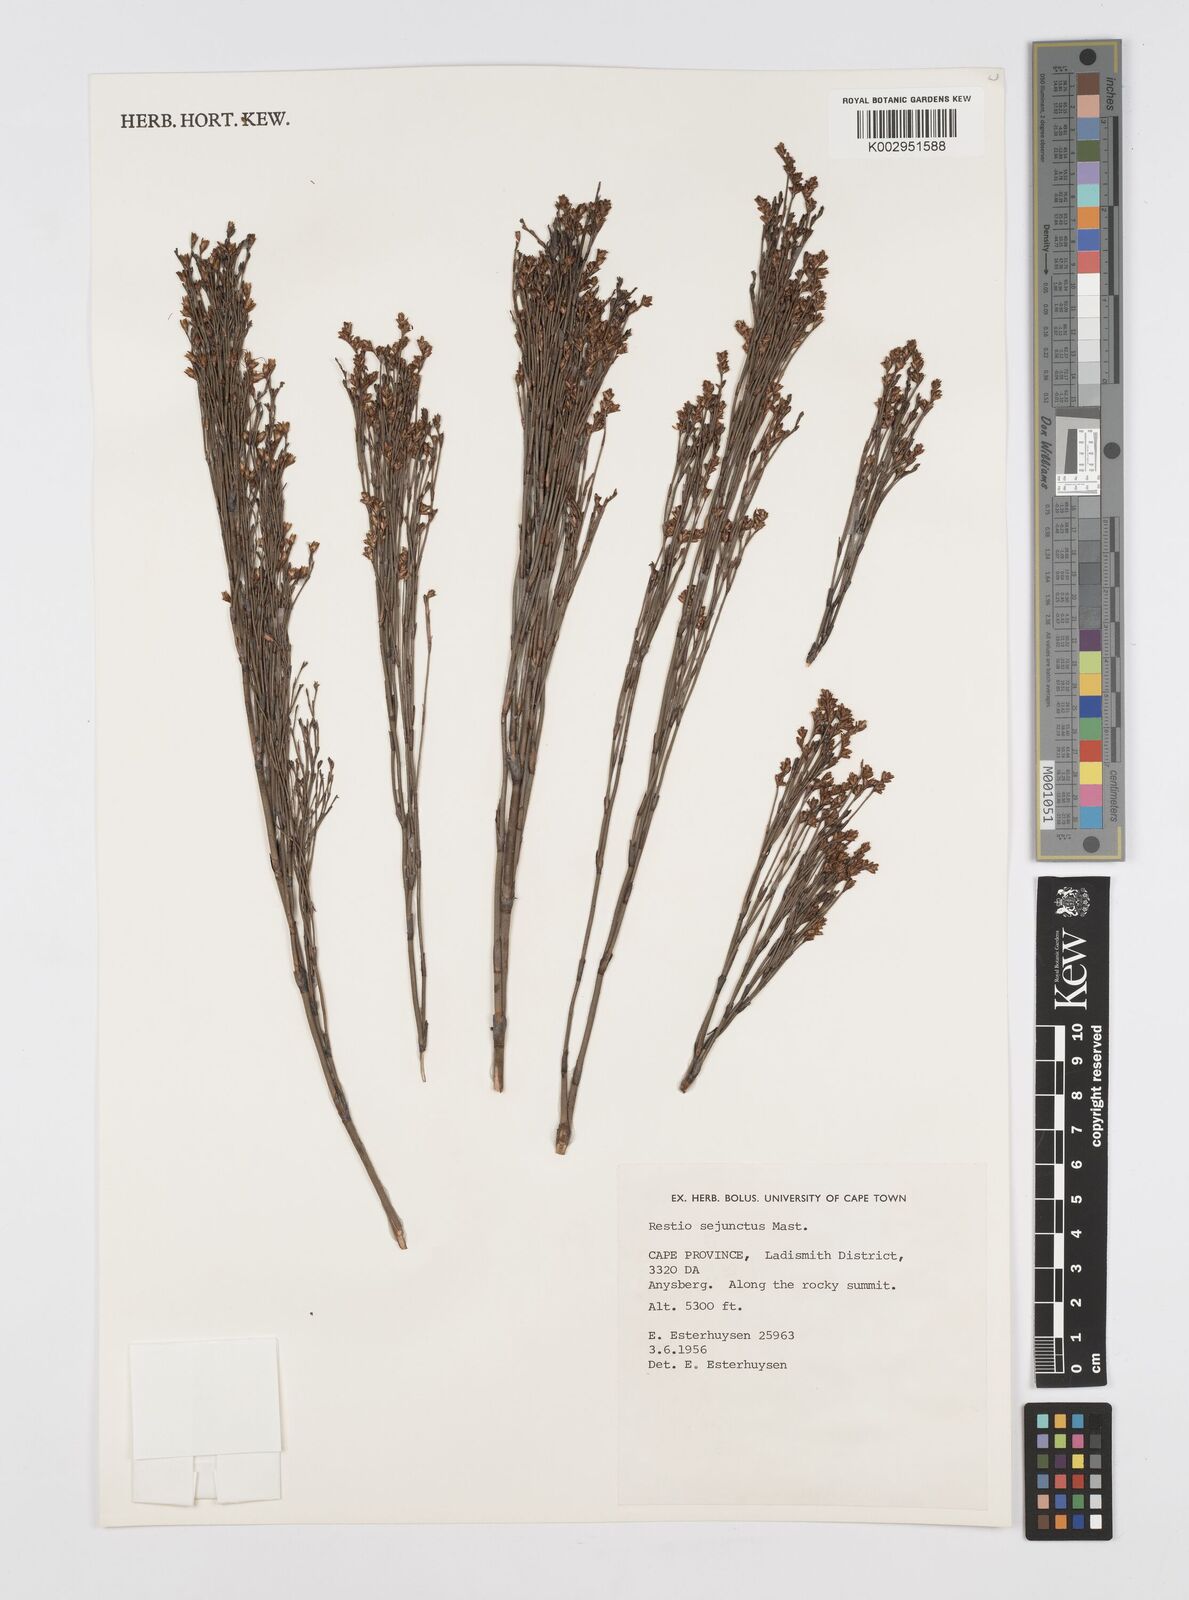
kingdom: Plantae
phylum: Tracheophyta
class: Liliopsida
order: Poales
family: Restionaceae
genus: Restio
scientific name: Restio sejunctus
